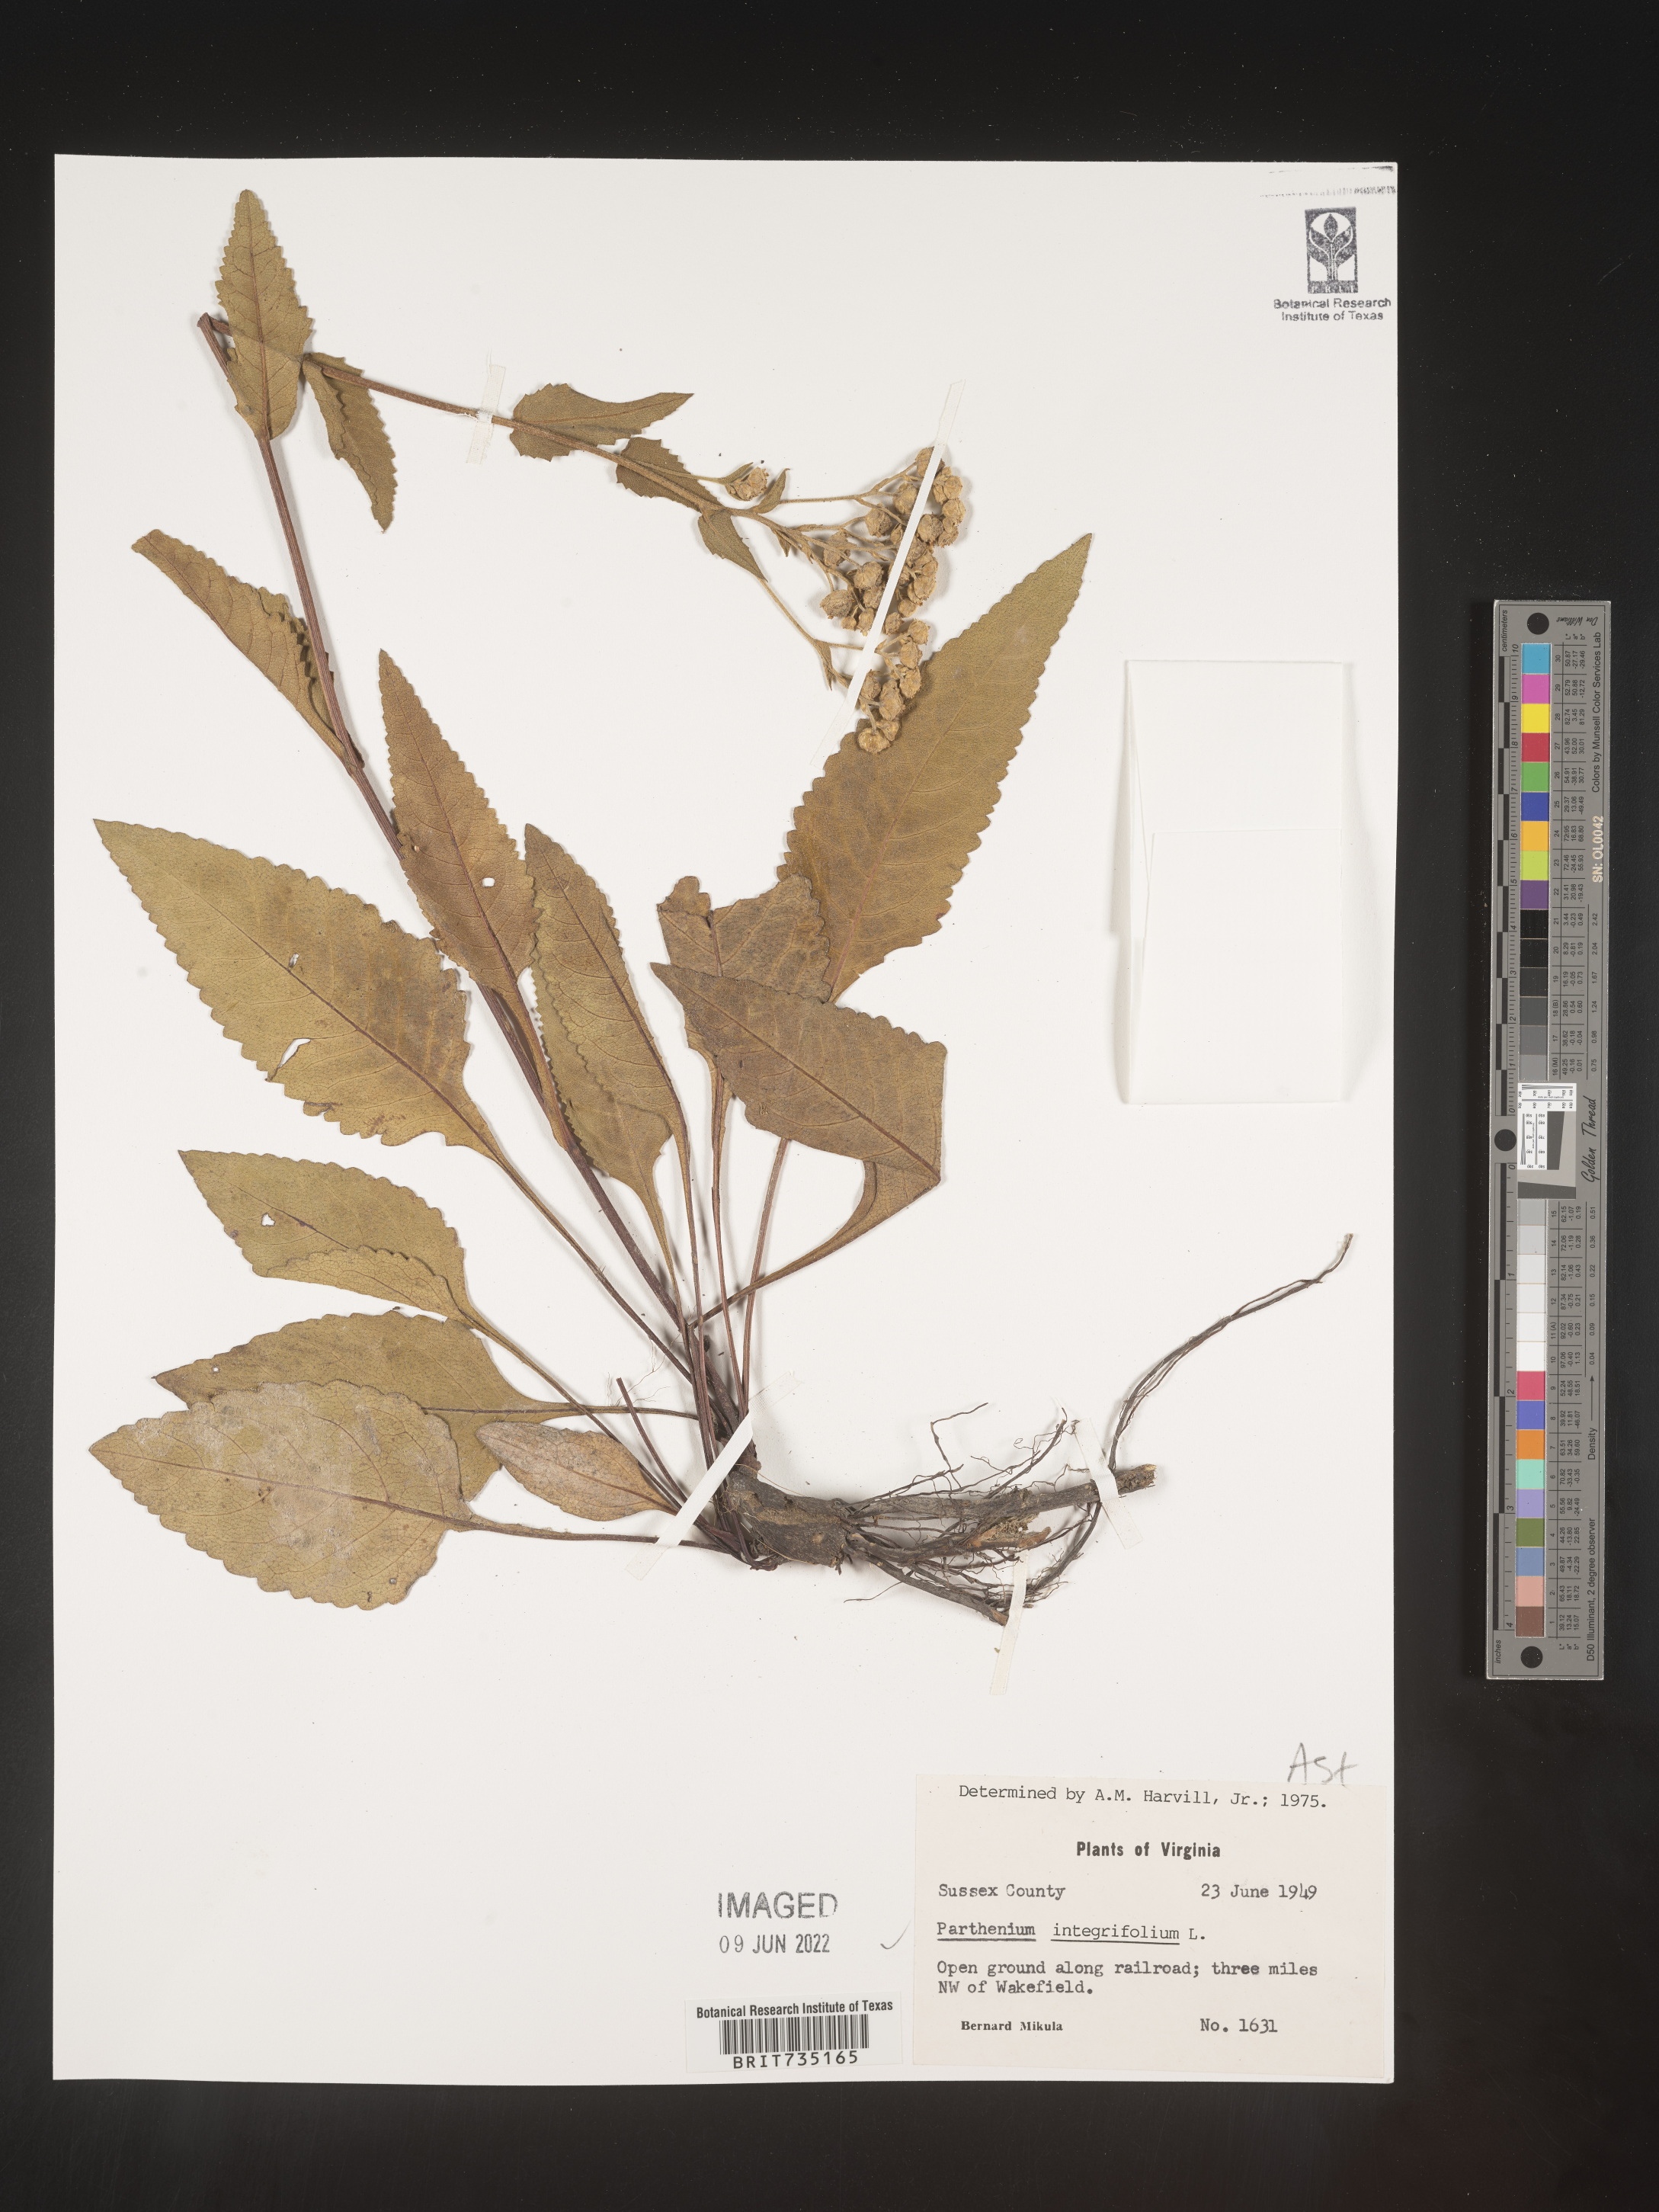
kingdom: Plantae
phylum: Tracheophyta
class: Magnoliopsida
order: Asterales
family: Asteraceae
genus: Parthenium
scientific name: Parthenium integrifolium
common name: American feverfew
